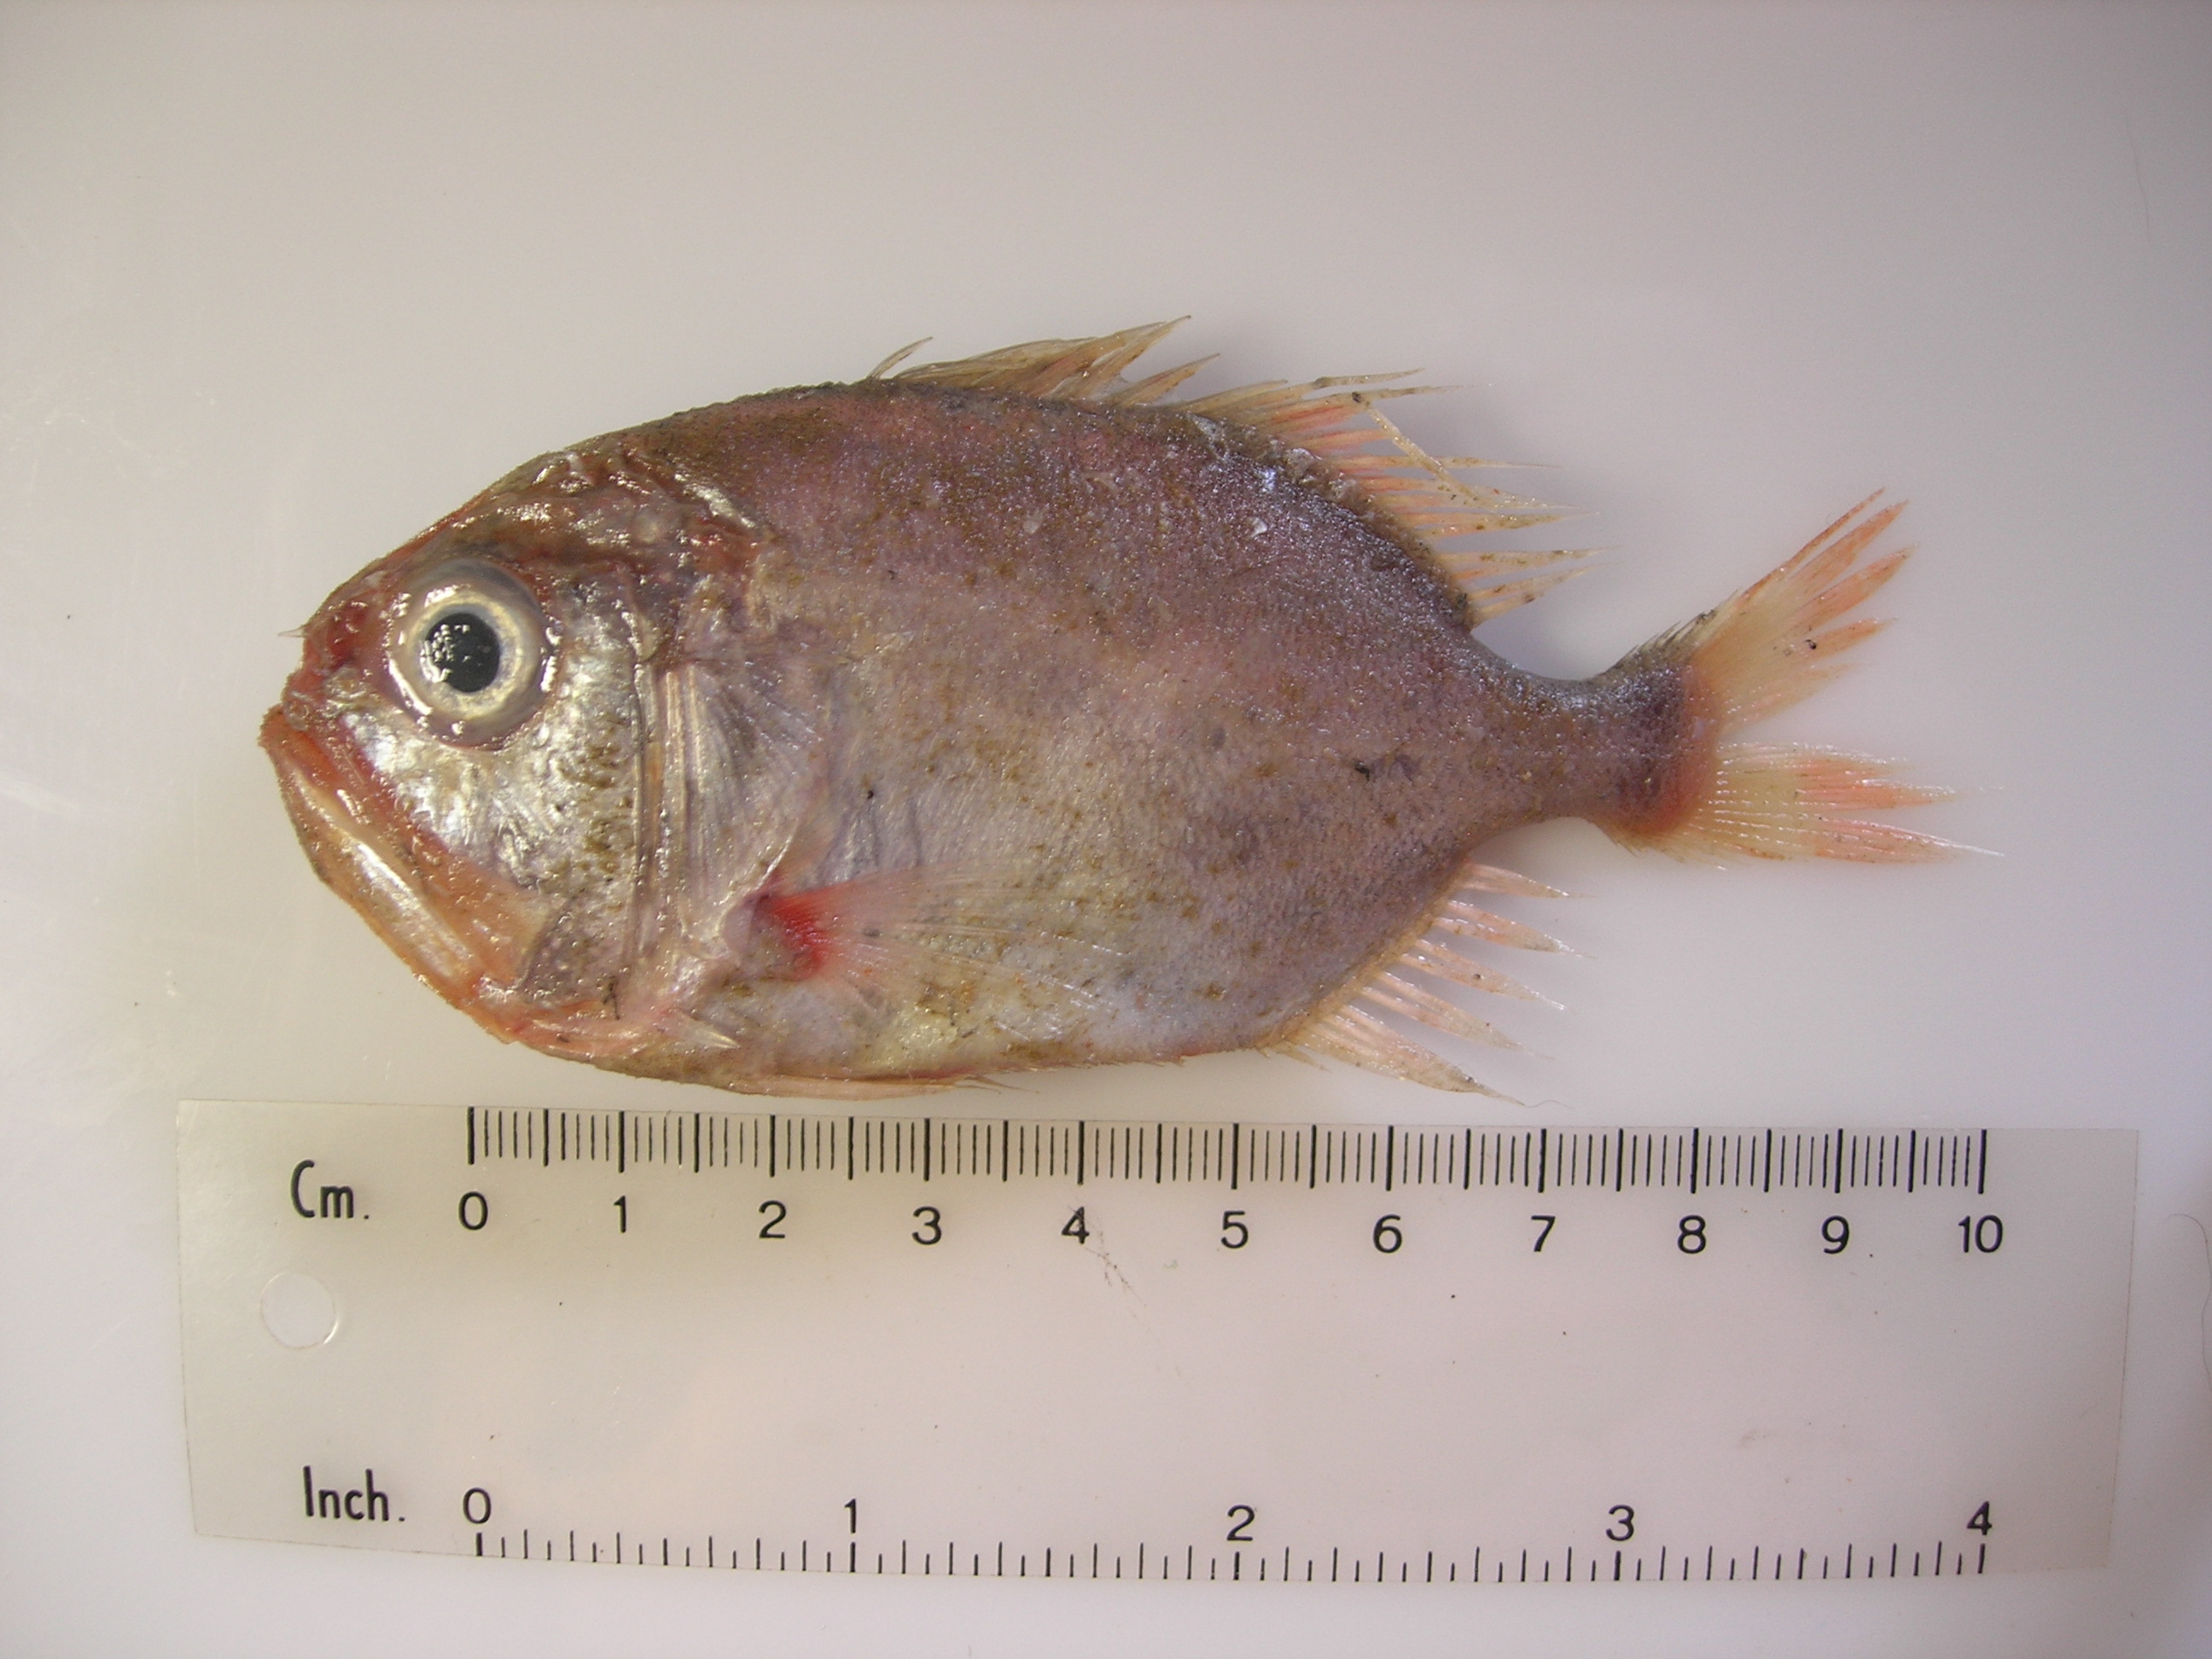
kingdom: Animalia
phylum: Chordata
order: Beryciformes
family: Trachichthyidae
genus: Gephyroberyx
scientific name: Gephyroberyx darwinii
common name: Big roughy
